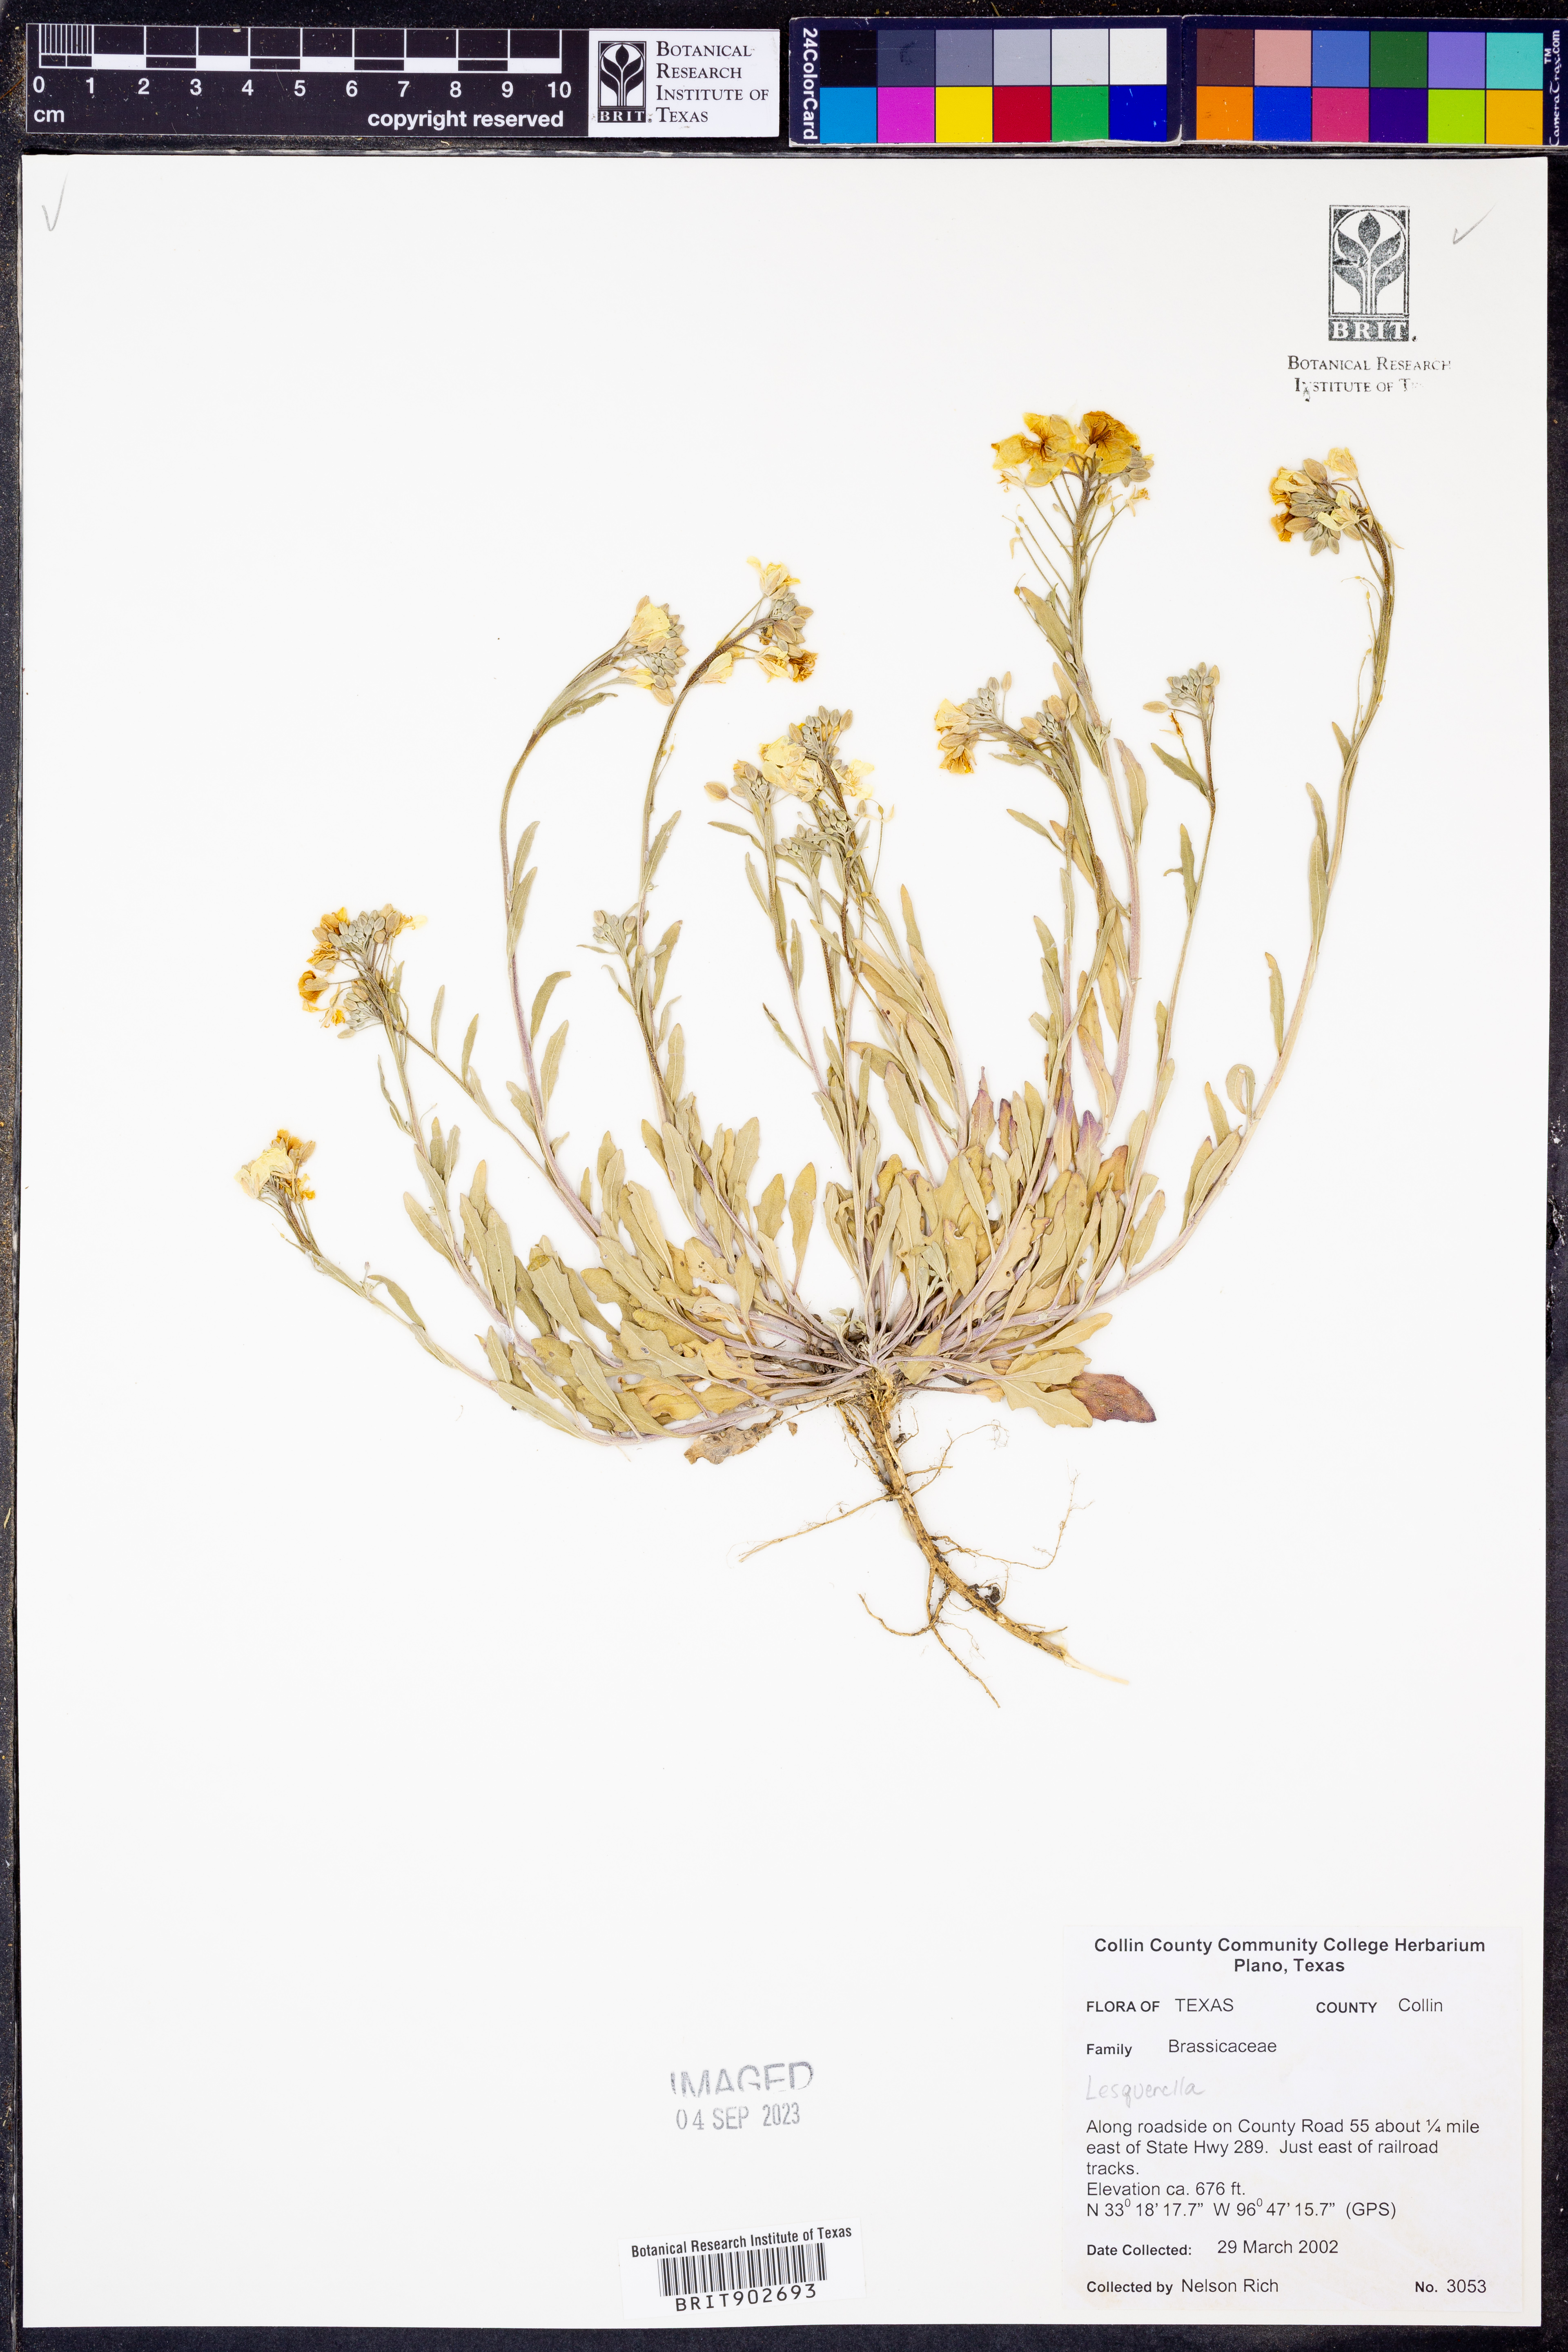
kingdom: Chromista
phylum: Cercozoa
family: Psammonobiotidae
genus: Lesquerella
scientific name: Lesquerella
